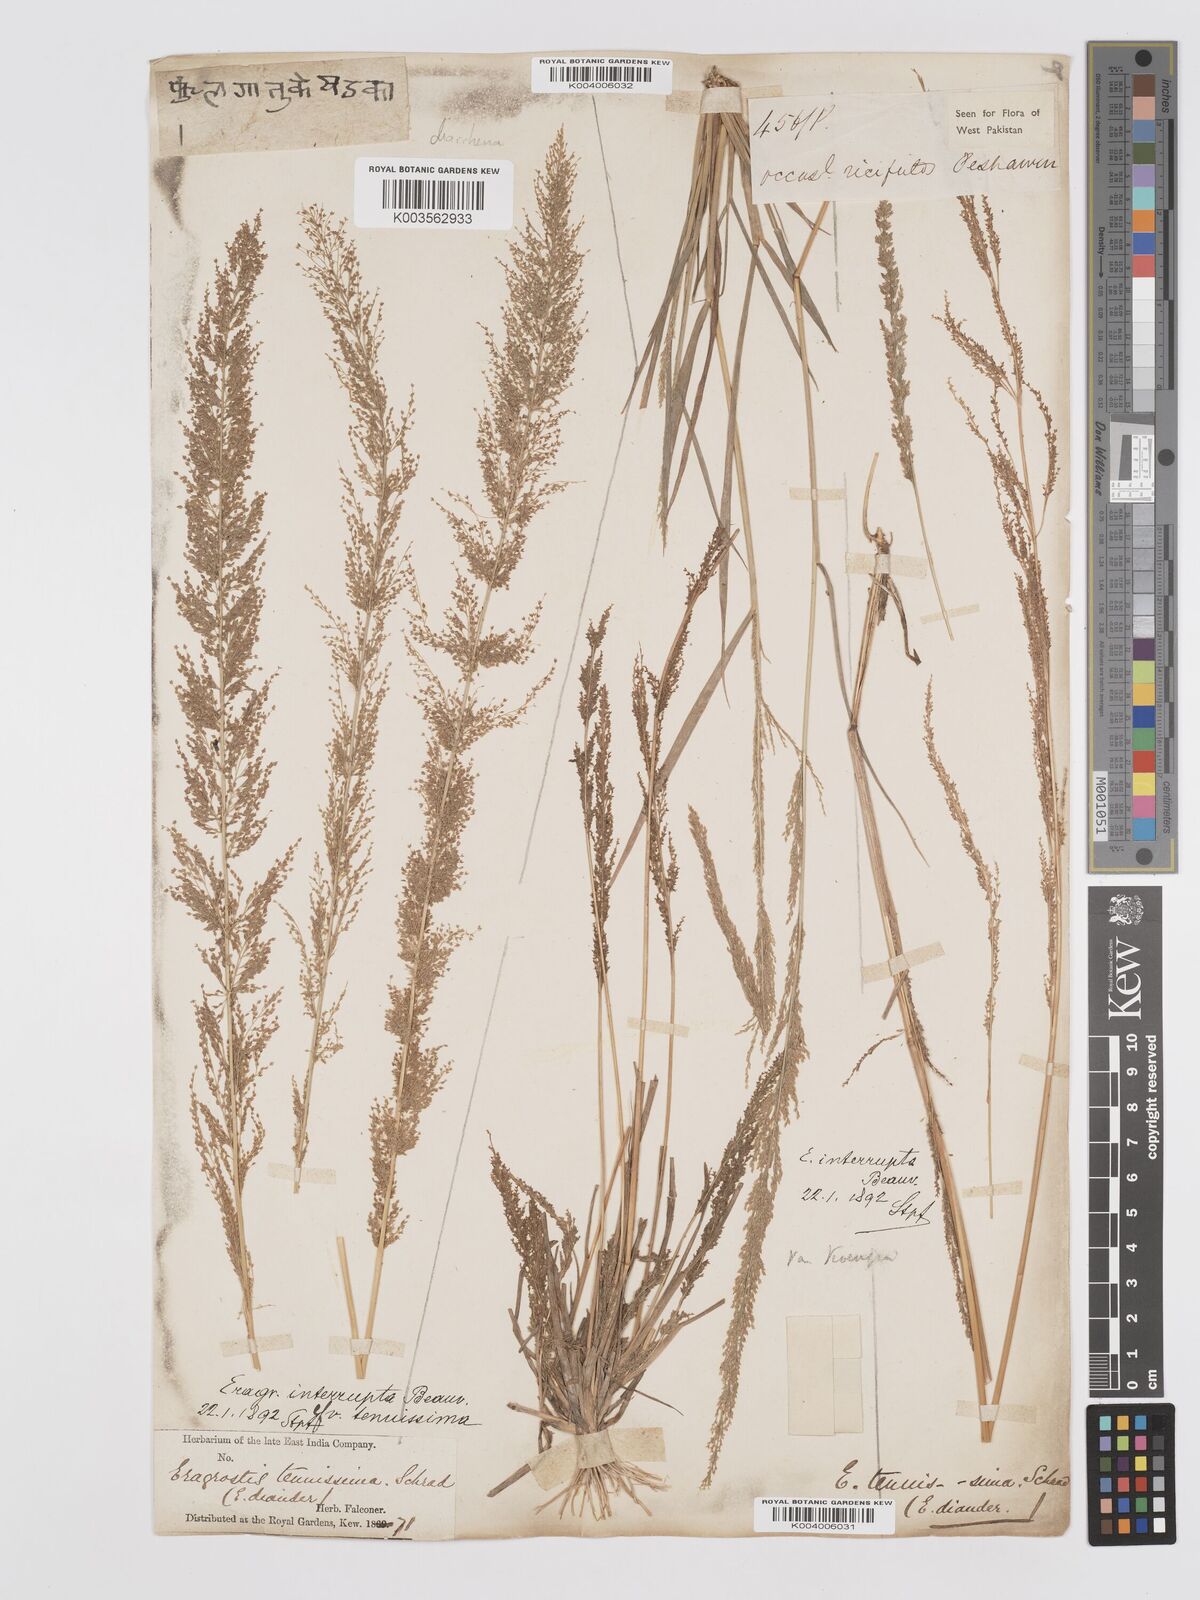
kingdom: Plantae
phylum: Tracheophyta
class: Liliopsida
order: Poales
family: Poaceae
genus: Eragrostis
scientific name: Eragrostis japonica
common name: Pond lovegrass
